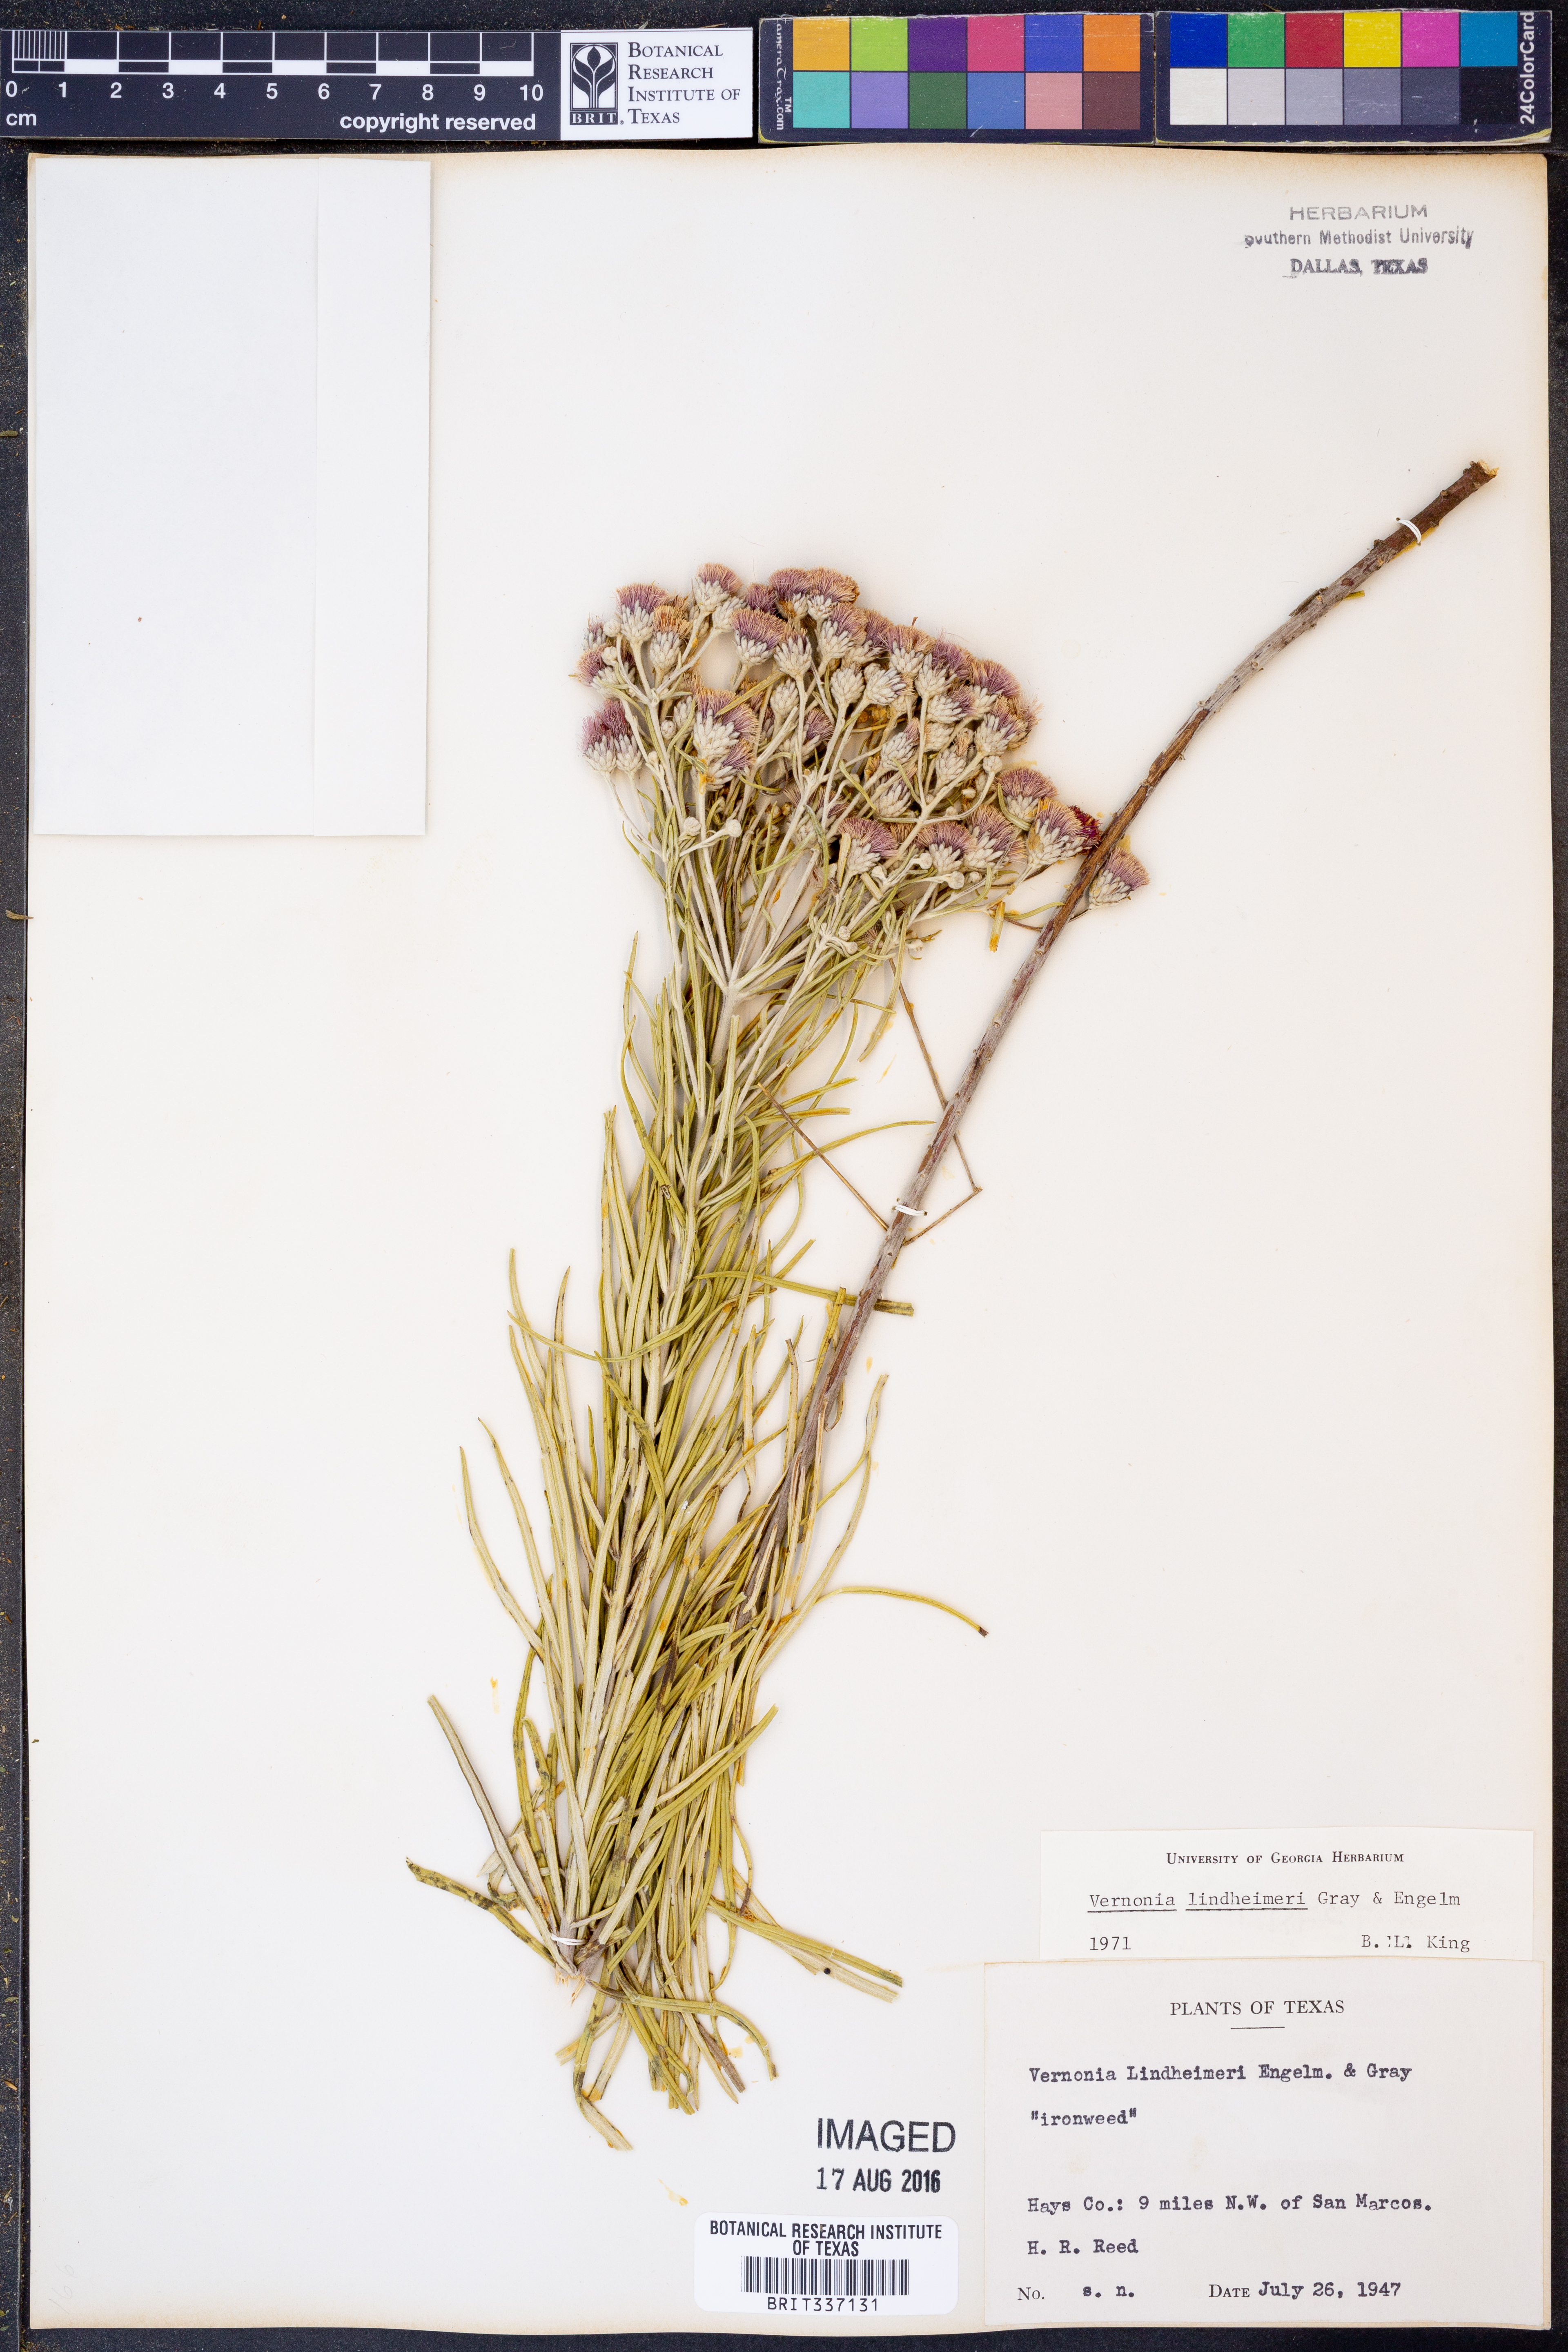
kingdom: Plantae
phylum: Tracheophyta
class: Magnoliopsida
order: Asterales
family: Asteraceae
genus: Vernonia
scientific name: Vernonia lindheimeri
